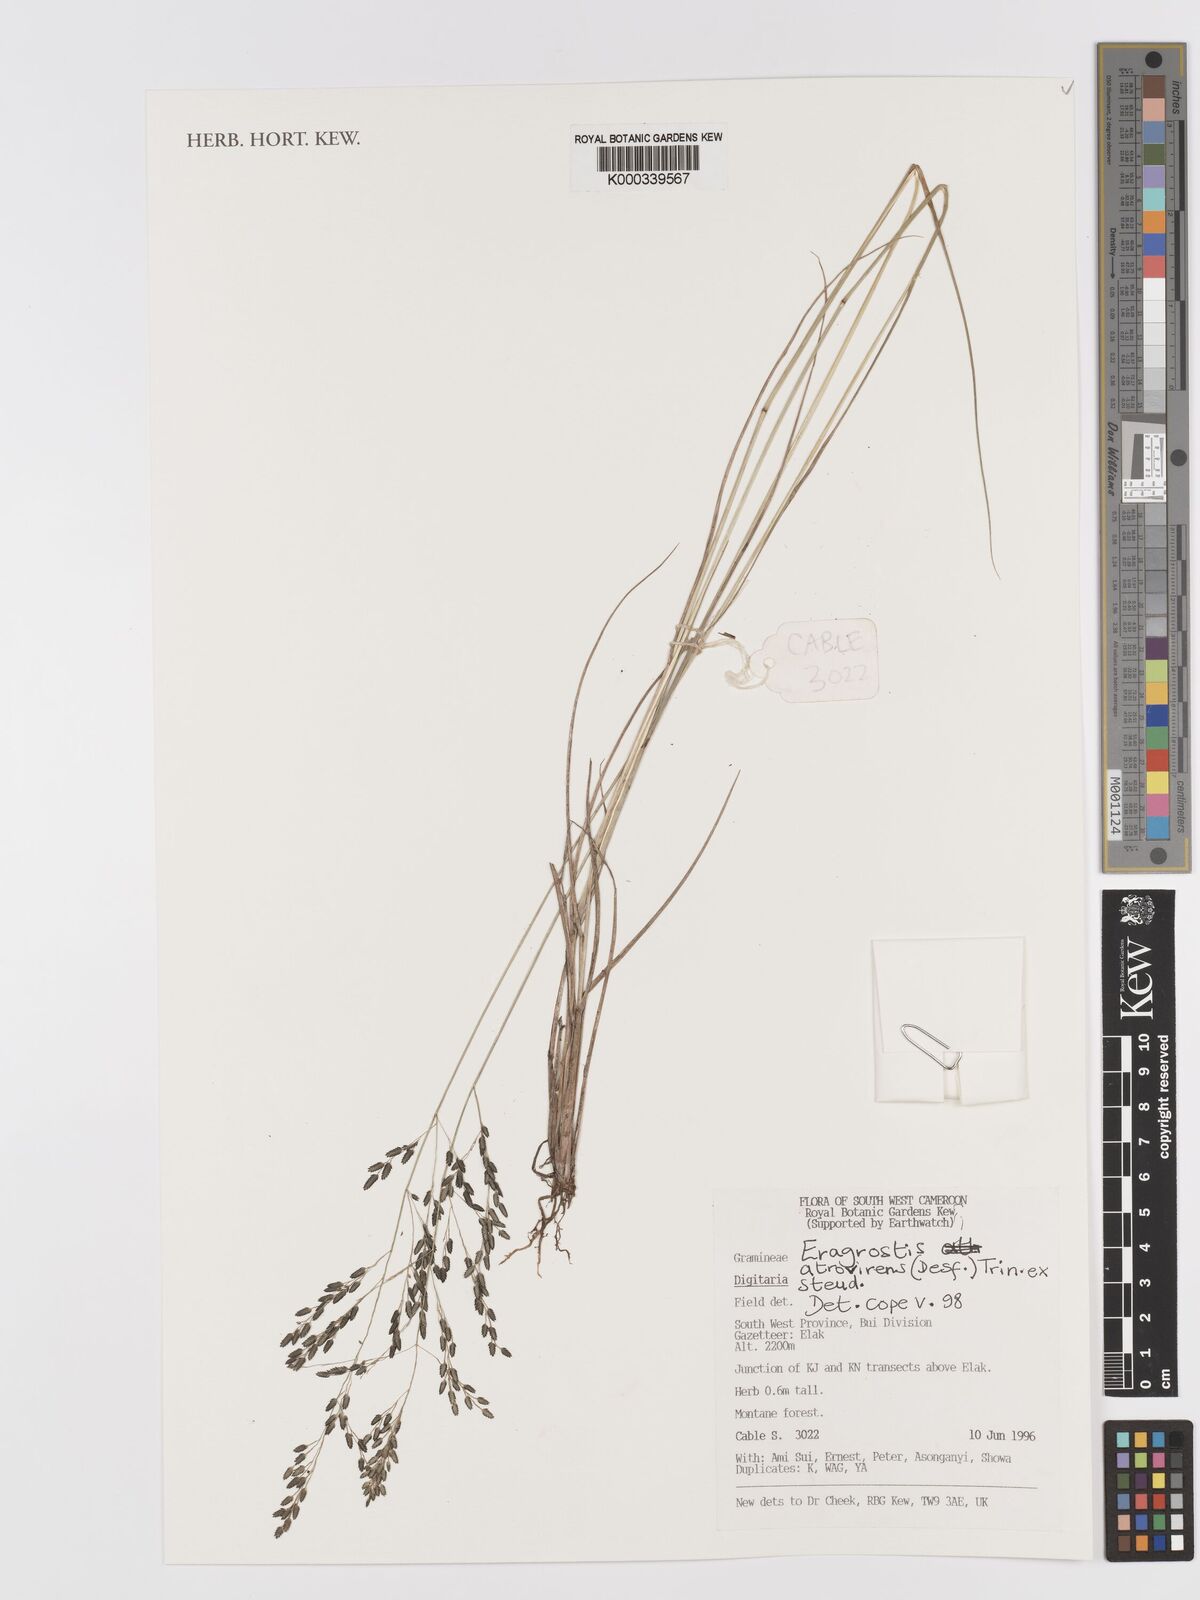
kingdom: Plantae
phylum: Tracheophyta
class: Liliopsida
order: Poales
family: Poaceae
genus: Eragrostis
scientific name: Eragrostis atrovirens
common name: Thalia lovegrass
